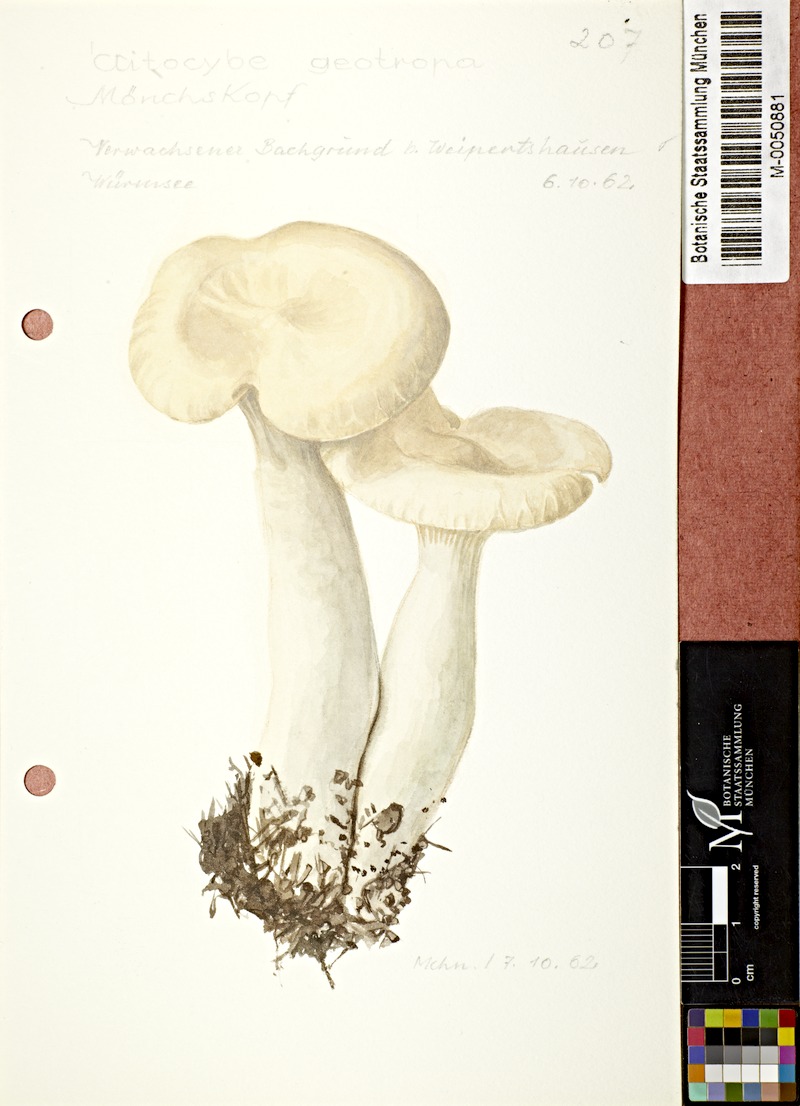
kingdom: Fungi
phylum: Basidiomycota
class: Agaricomycetes
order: Agaricales
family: Tricholomataceae
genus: Infundibulicybe
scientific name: Infundibulicybe geotropa
